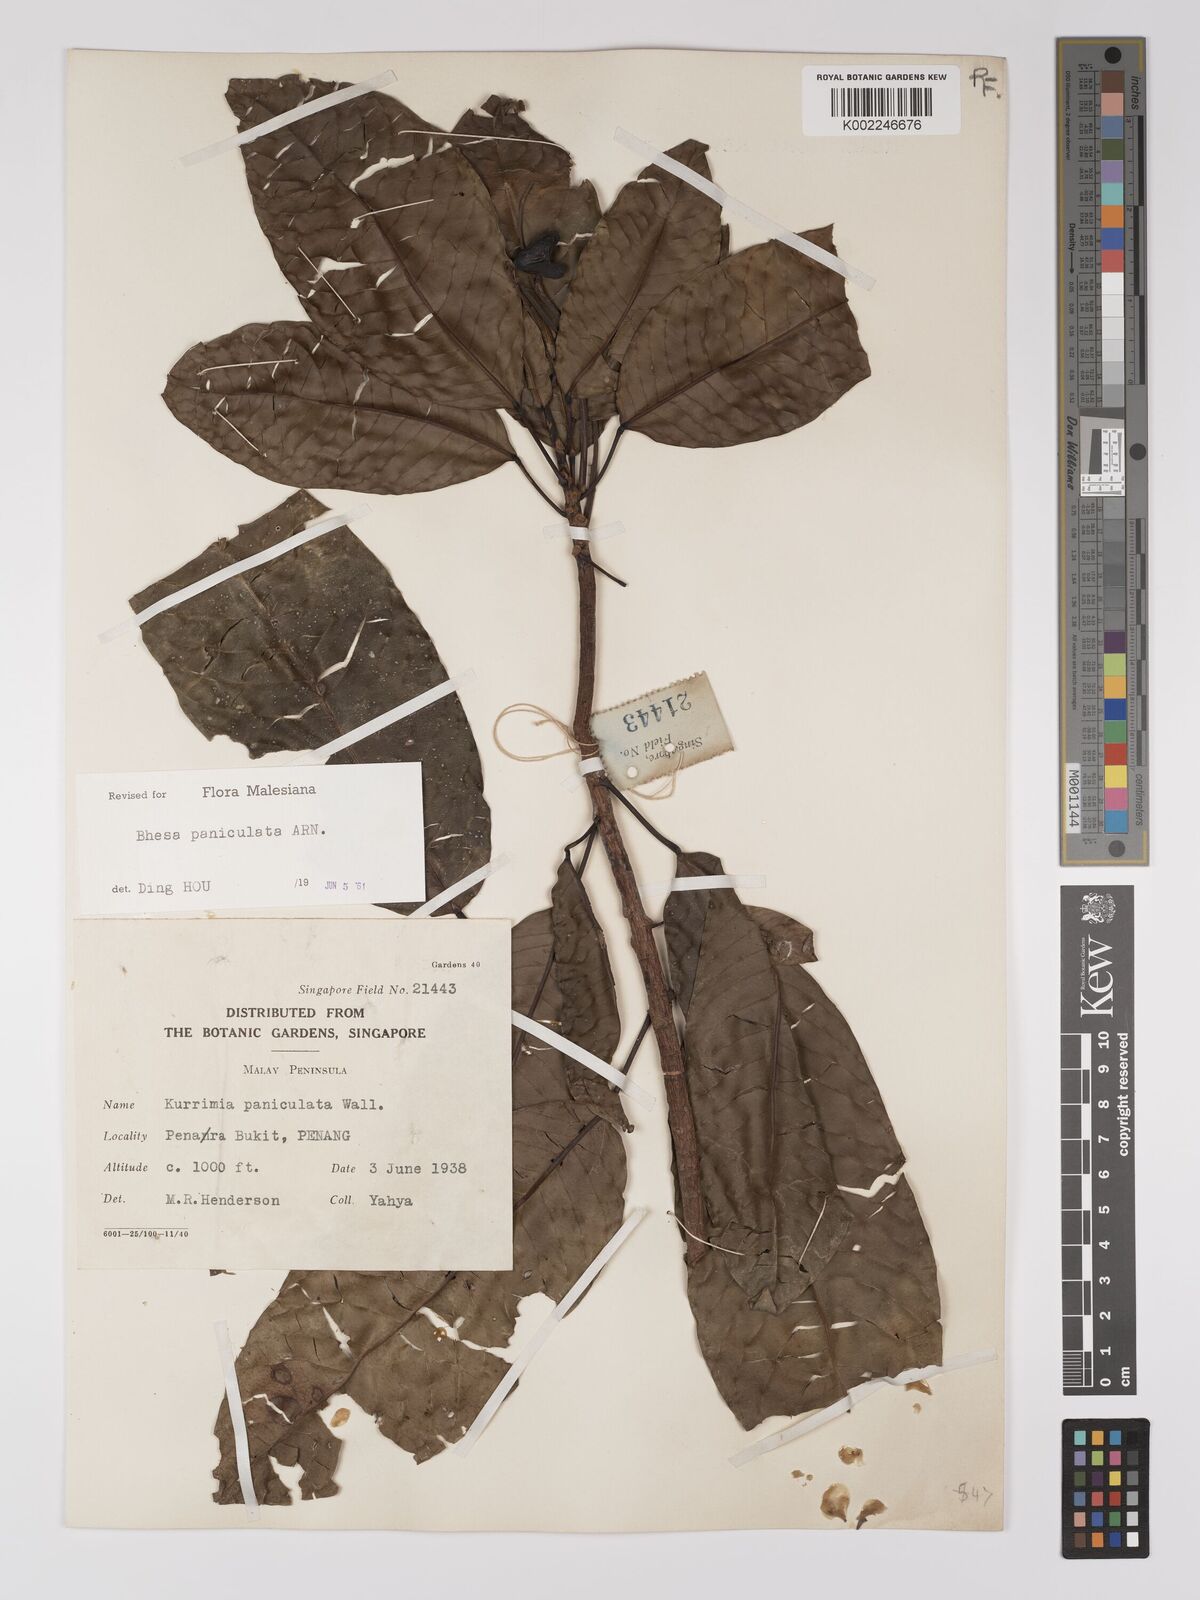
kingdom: Plantae
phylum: Tracheophyta
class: Magnoliopsida
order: Malpighiales
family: Centroplacaceae
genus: Bhesa
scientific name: Bhesa paniculata
